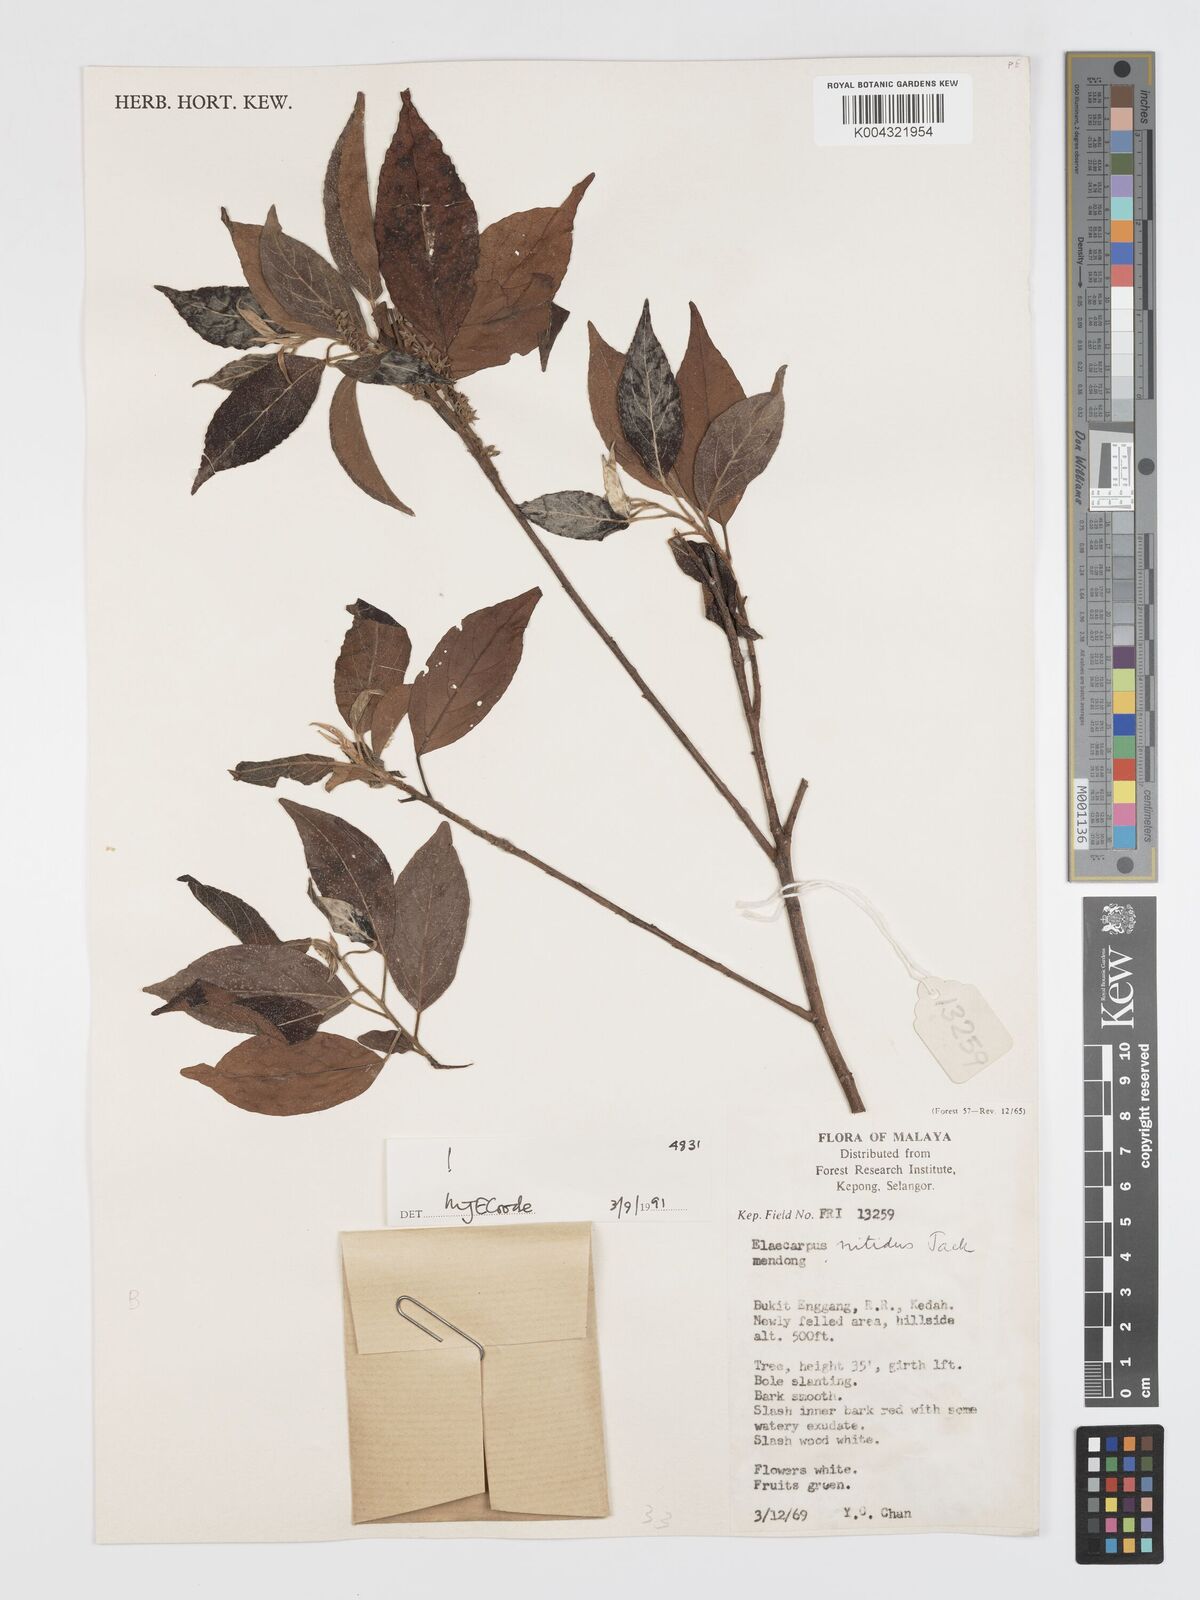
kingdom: Plantae
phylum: Tracheophyta
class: Magnoliopsida
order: Oxalidales
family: Elaeocarpaceae
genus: Elaeocarpus
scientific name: Elaeocarpus nitidus
